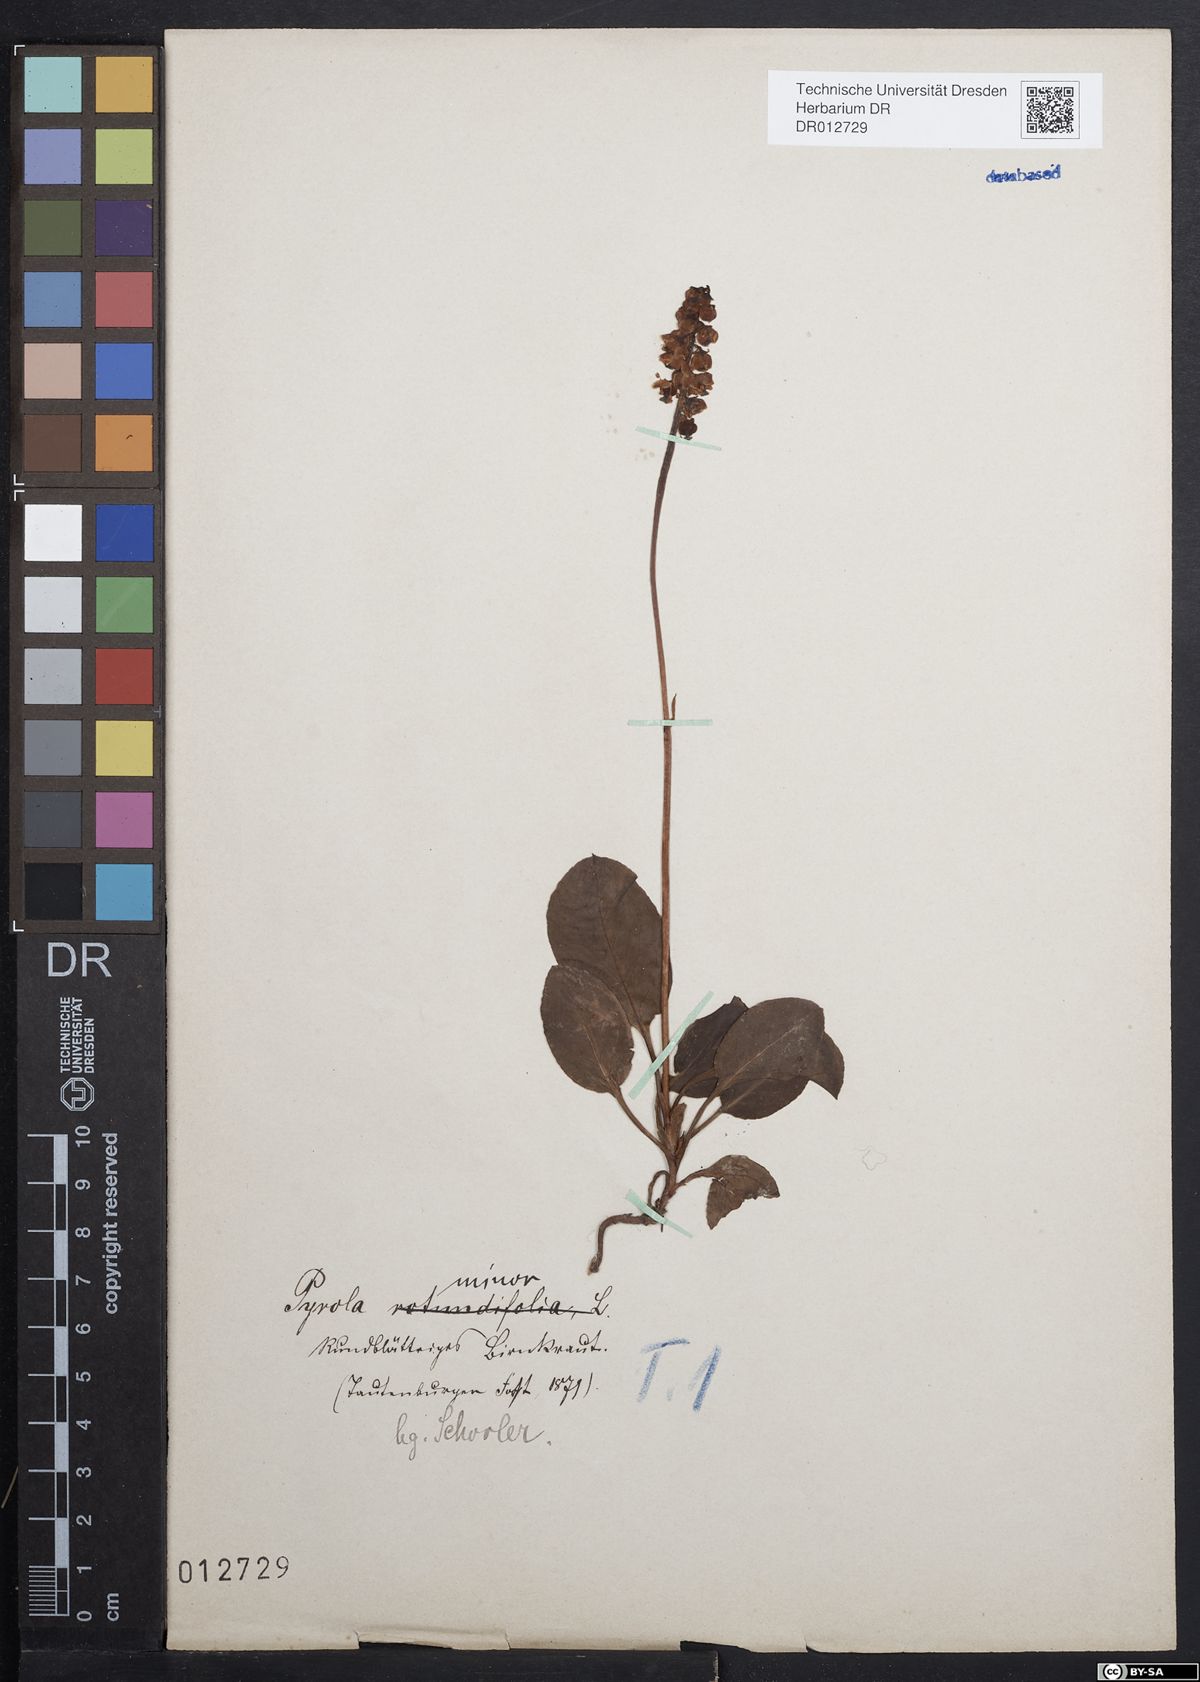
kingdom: Plantae
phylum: Tracheophyta
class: Magnoliopsida
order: Ericales
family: Ericaceae
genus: Pyrola
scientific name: Pyrola minor
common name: Common wintergreen
